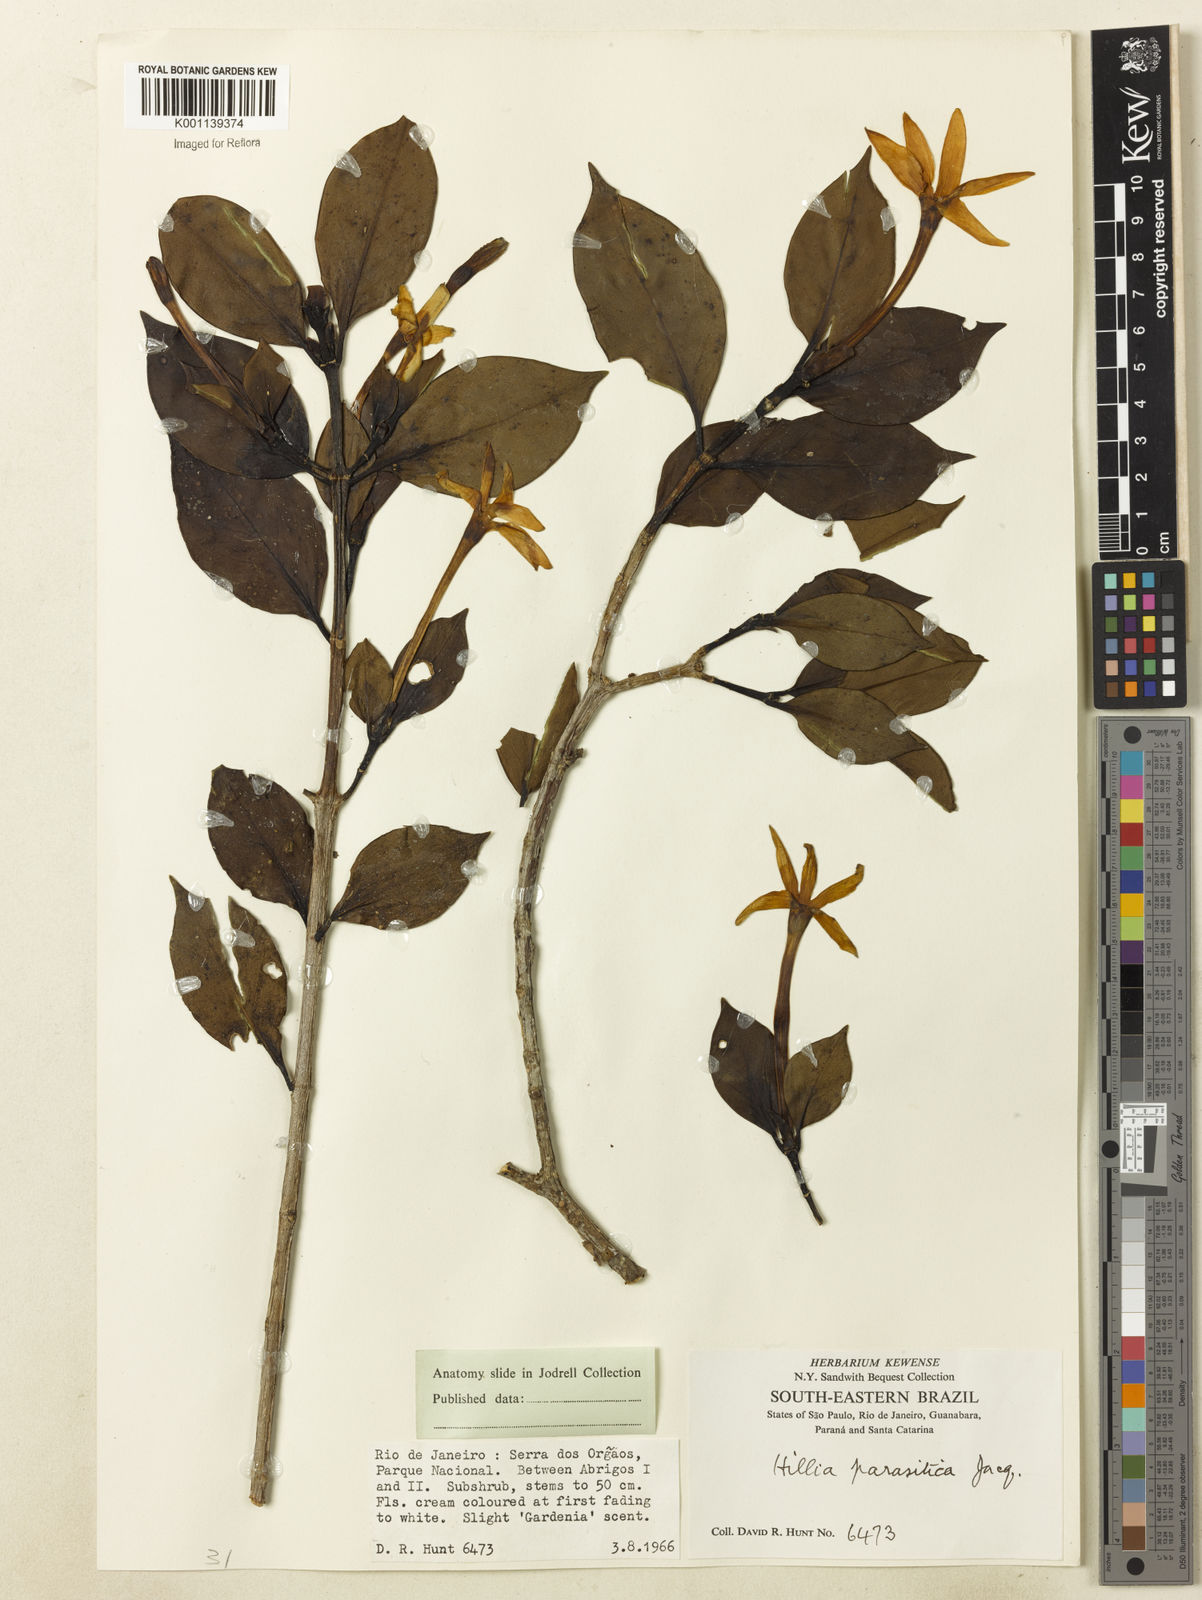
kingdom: Plantae
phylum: Tracheophyta
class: Magnoliopsida
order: Gentianales
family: Rubiaceae
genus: Hillia
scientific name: Hillia parasitica
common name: Morning star
